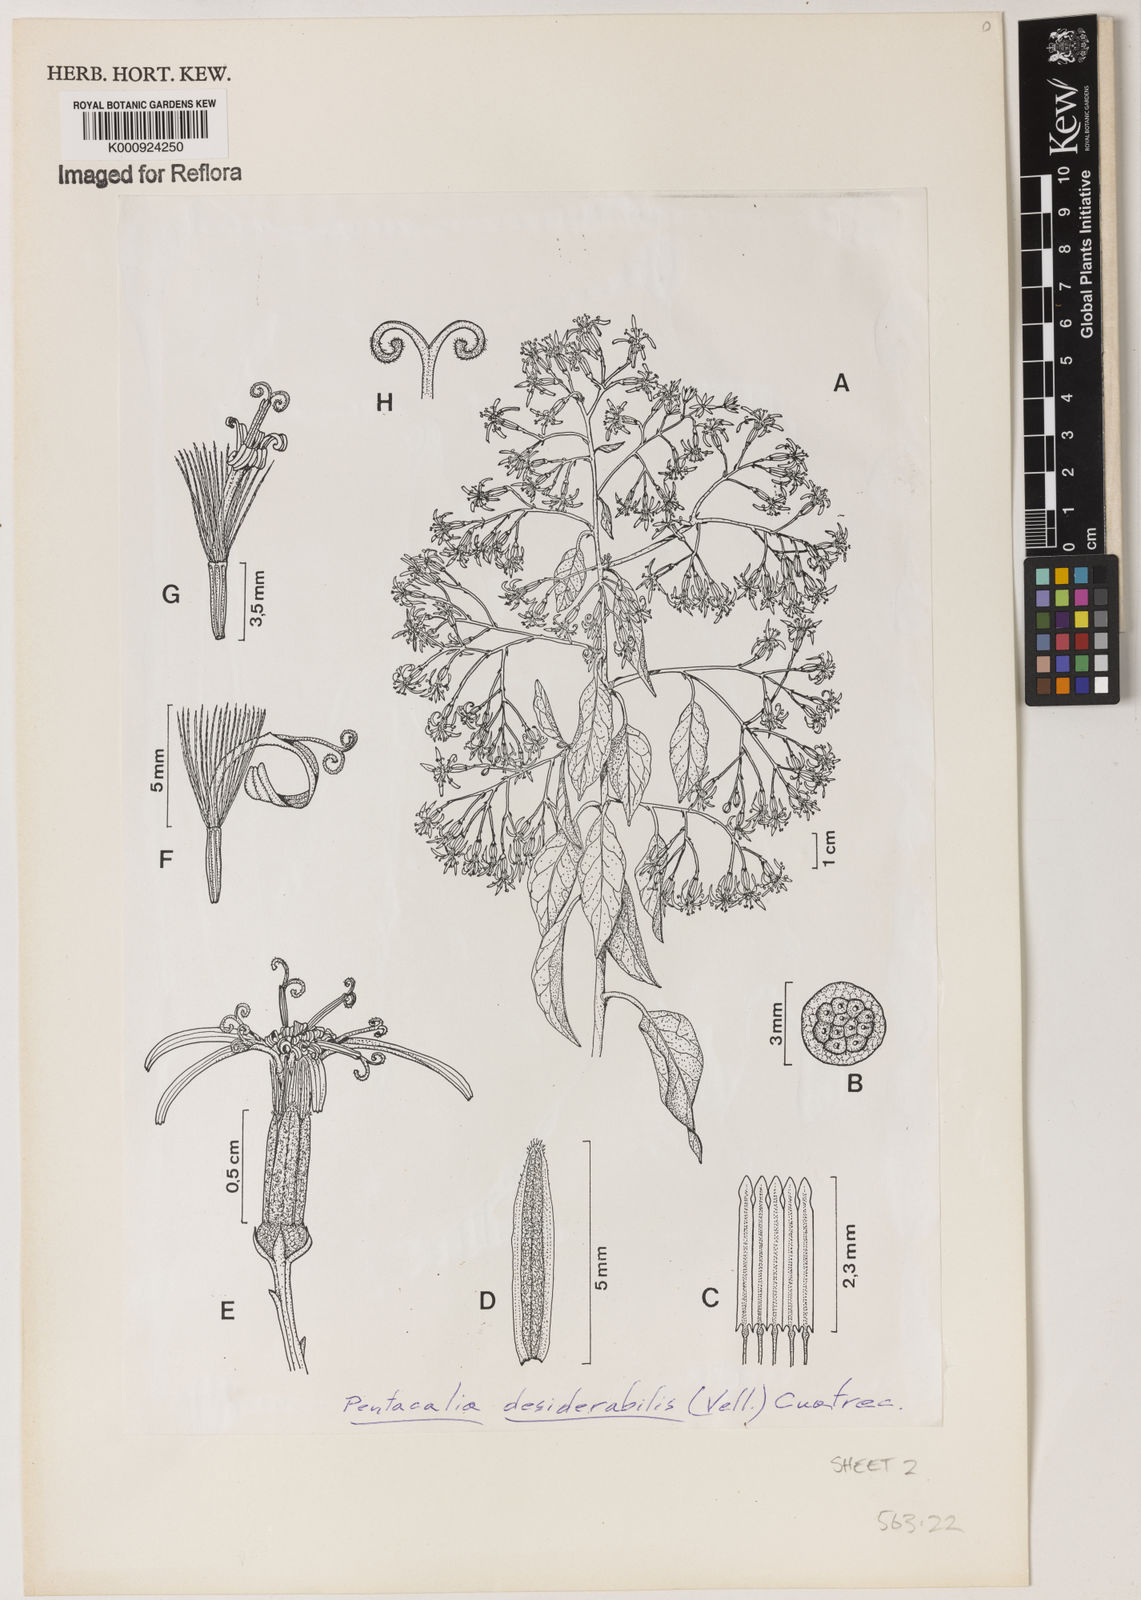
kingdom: Plantae
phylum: Tracheophyta
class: Magnoliopsida
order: Asterales
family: Asteraceae
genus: Pentacalia
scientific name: Pentacalia desiderabilis
